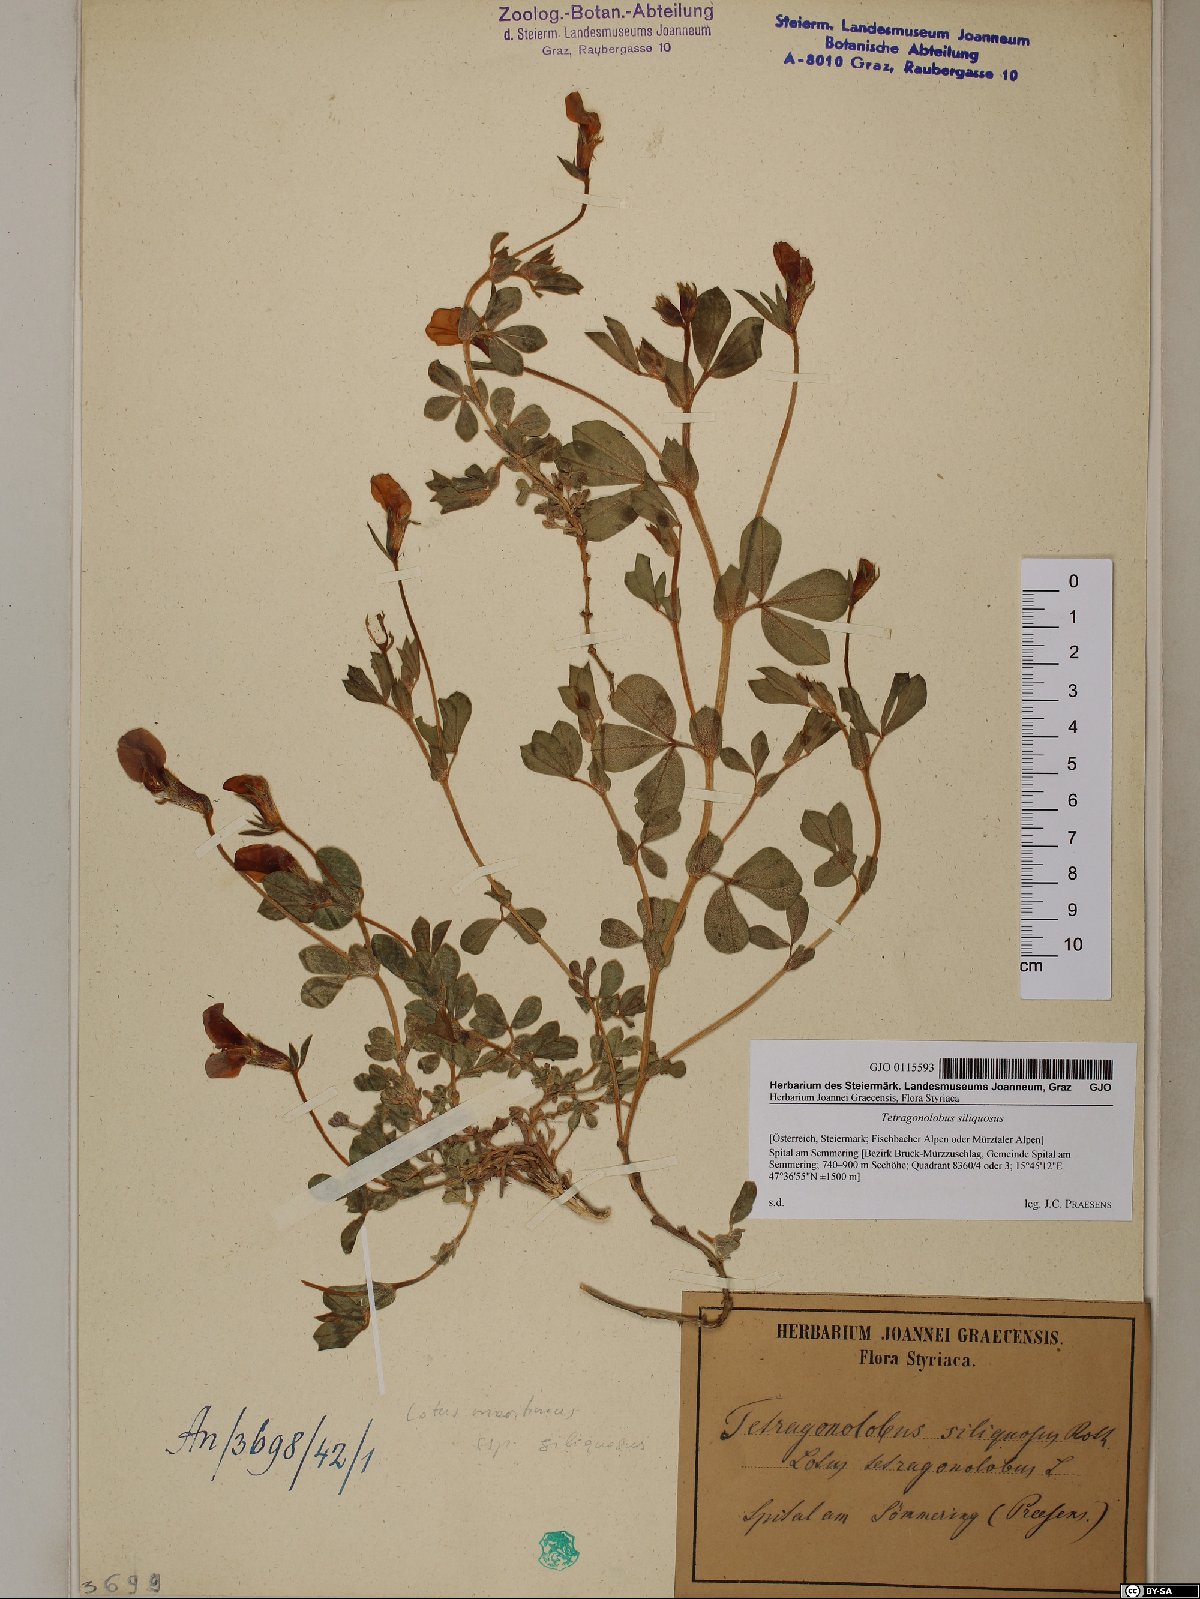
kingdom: Plantae
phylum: Tracheophyta
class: Magnoliopsida
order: Fabales
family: Fabaceae
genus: Lathyrus
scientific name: Lathyrus inconspicuus
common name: Inconspicuous pea
